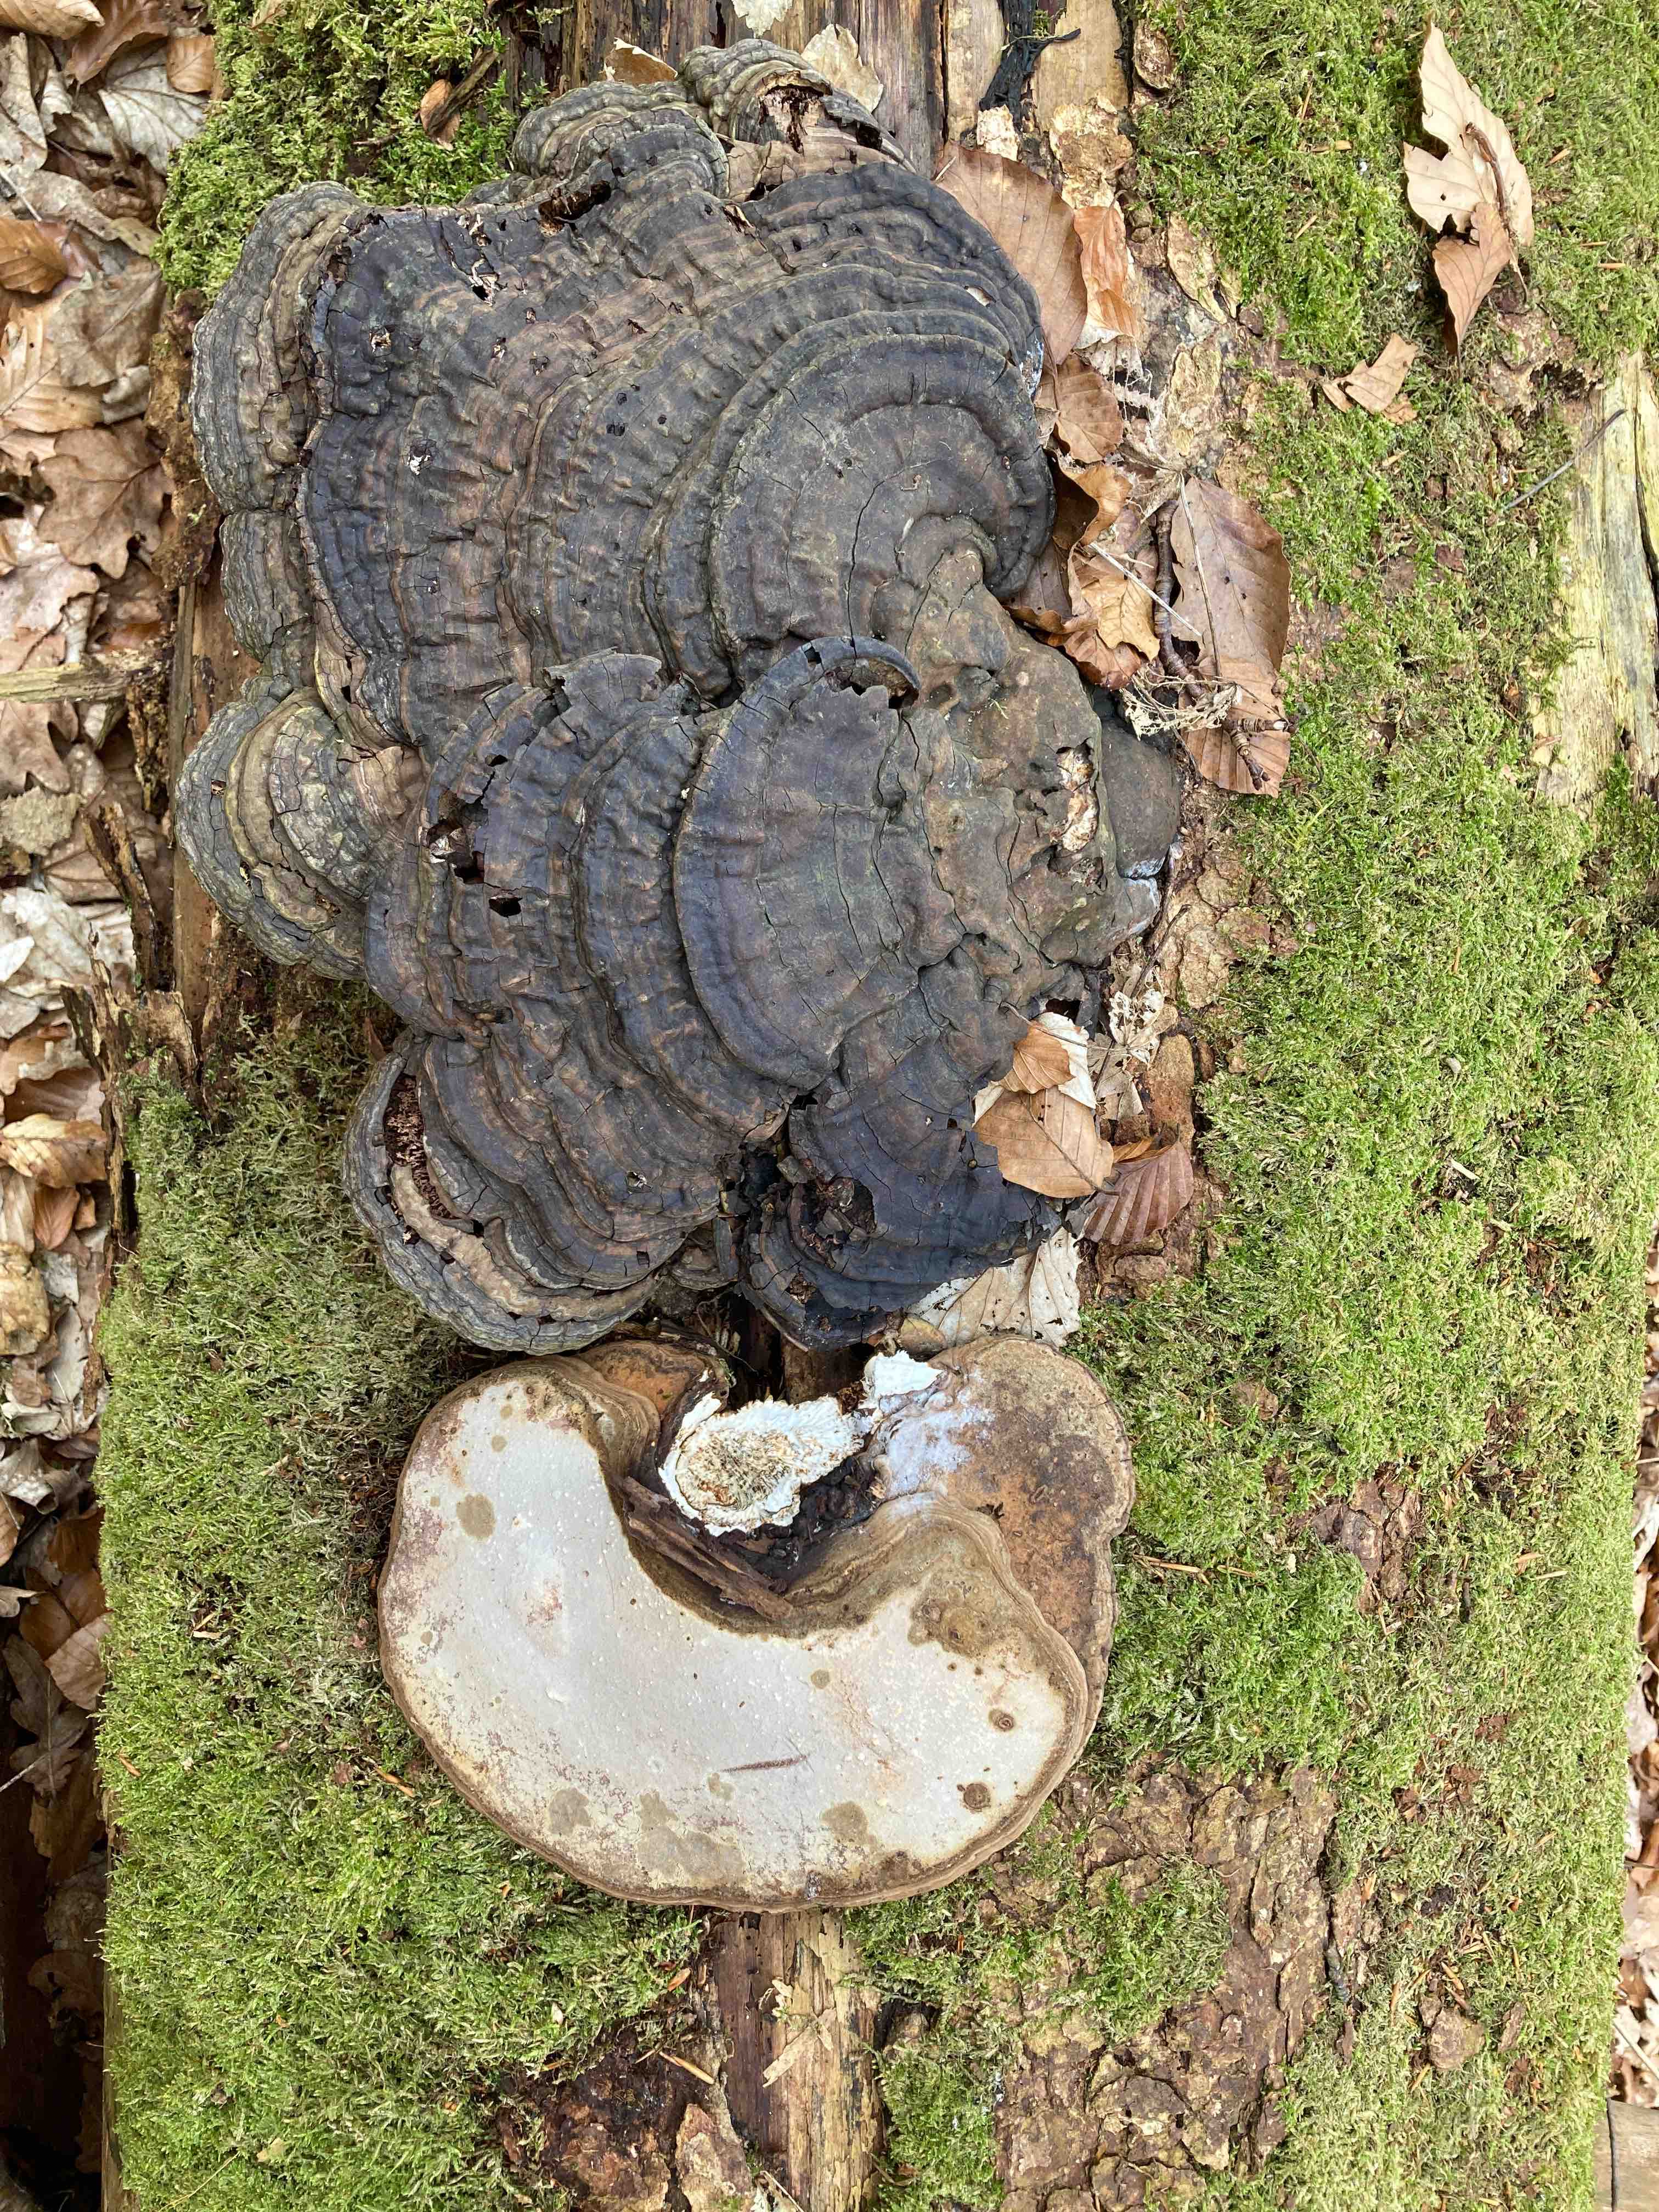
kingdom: Fungi
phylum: Basidiomycota
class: Agaricomycetes
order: Polyporales
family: Polyporaceae
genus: Ganoderma
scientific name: Ganoderma applanatum
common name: flad lakporesvamp
